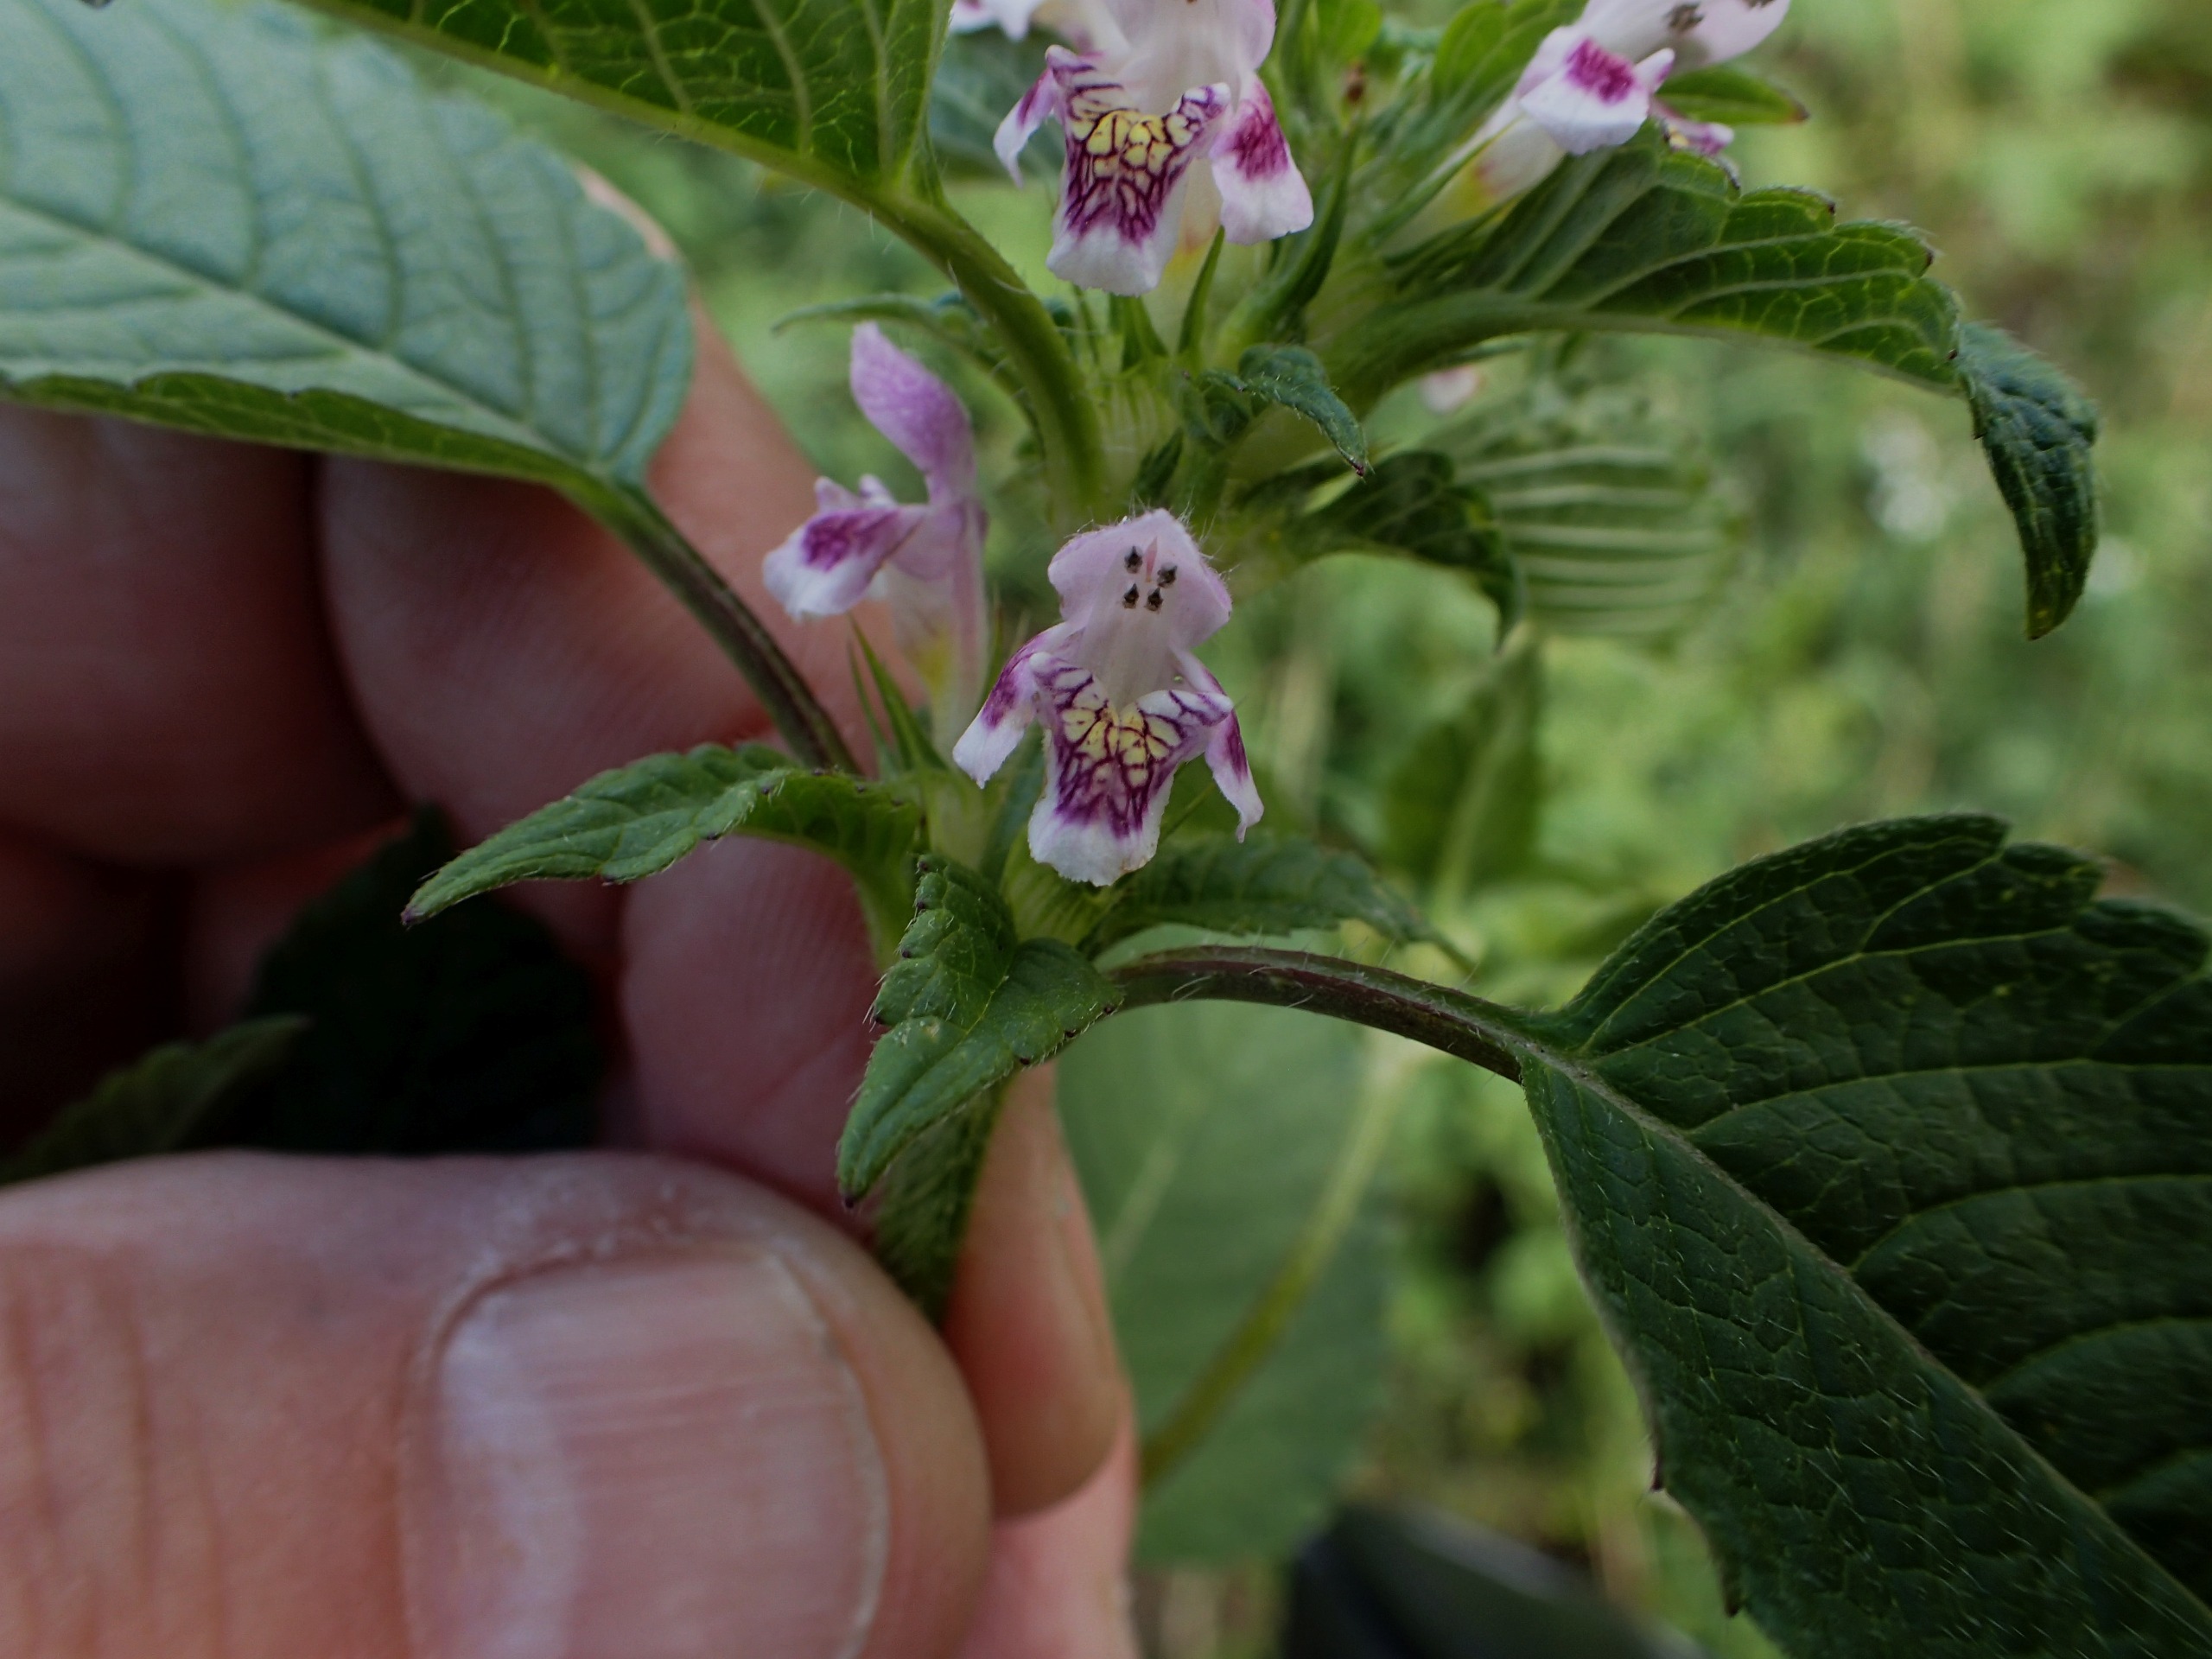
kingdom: Plantae
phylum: Tracheophyta
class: Magnoliopsida
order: Lamiales
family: Lamiaceae
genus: Galeopsis
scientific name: Galeopsis tetrahit
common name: Almindelig hanekro
